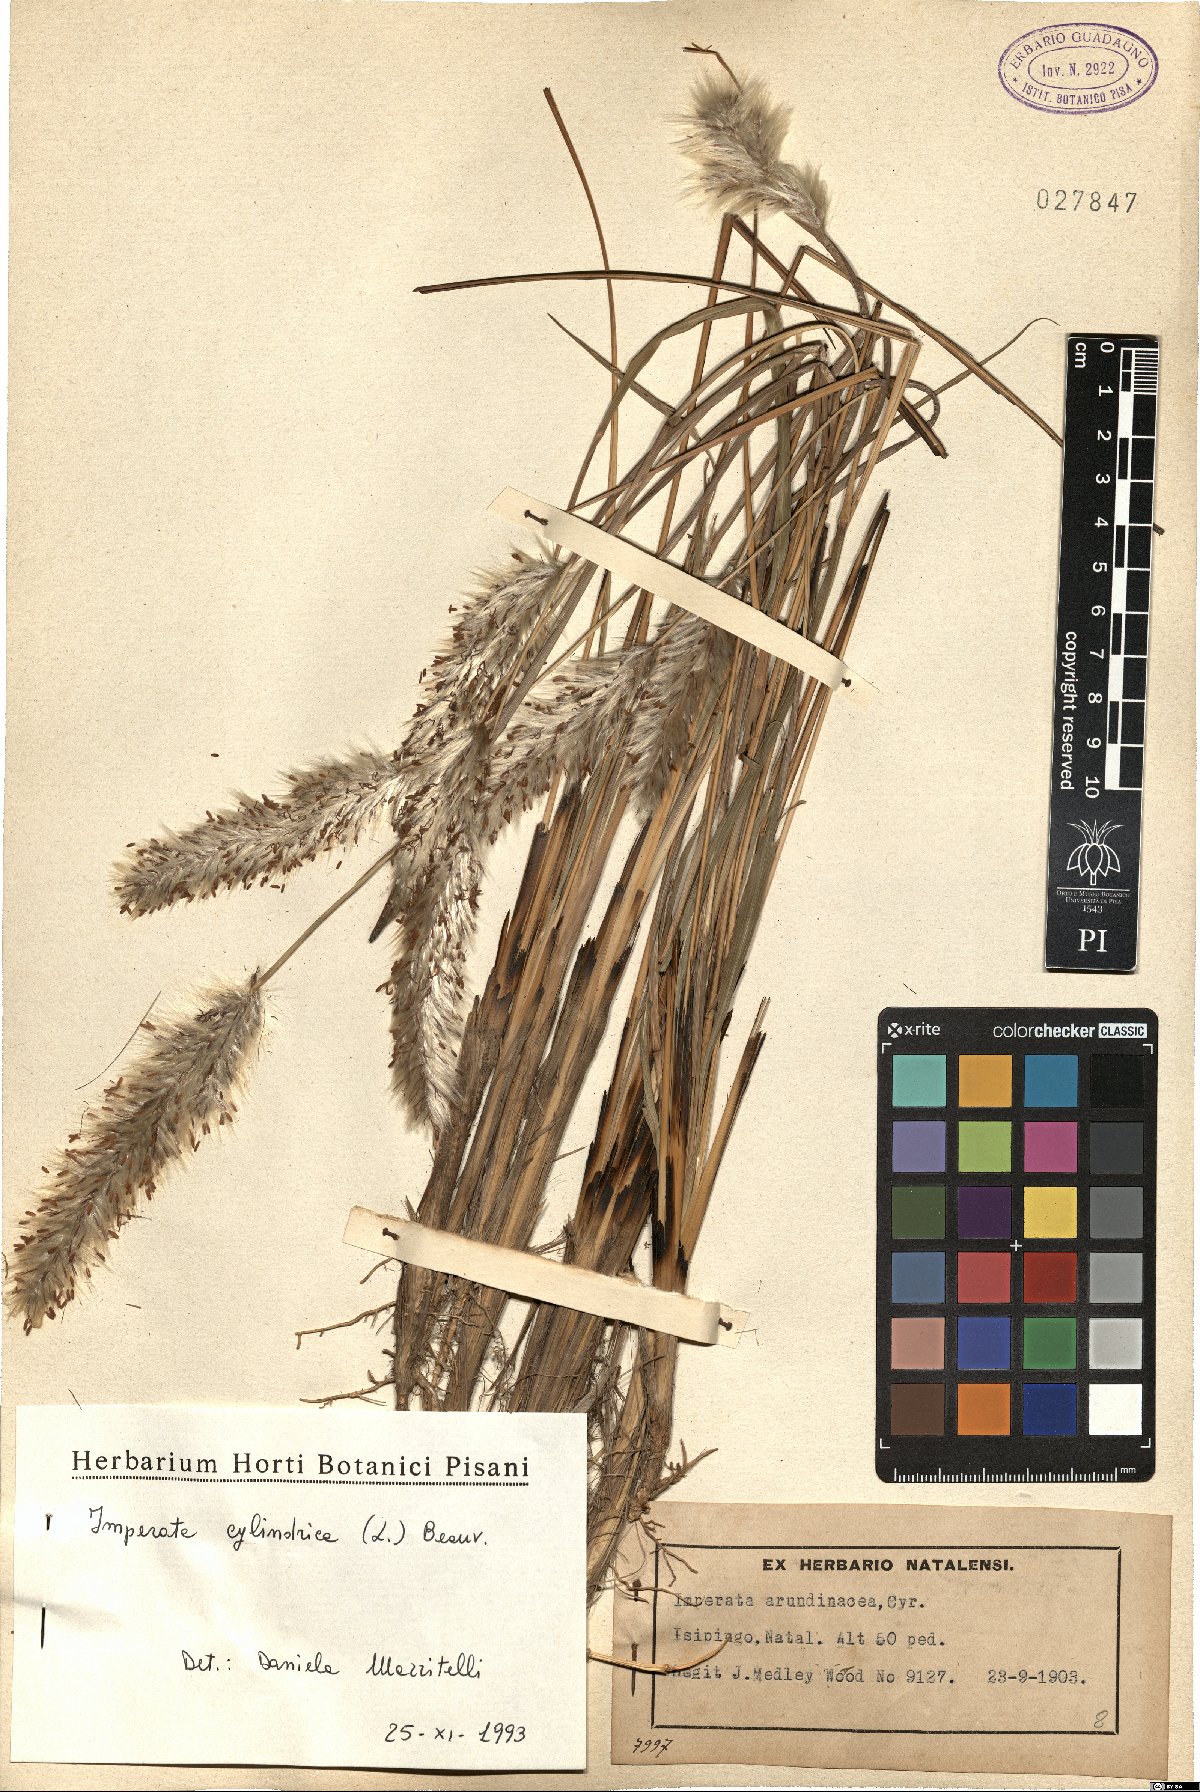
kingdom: Plantae
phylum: Tracheophyta
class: Liliopsida
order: Poales
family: Poaceae
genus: Imperata
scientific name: Imperata cylindrica
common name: Cogongrass
